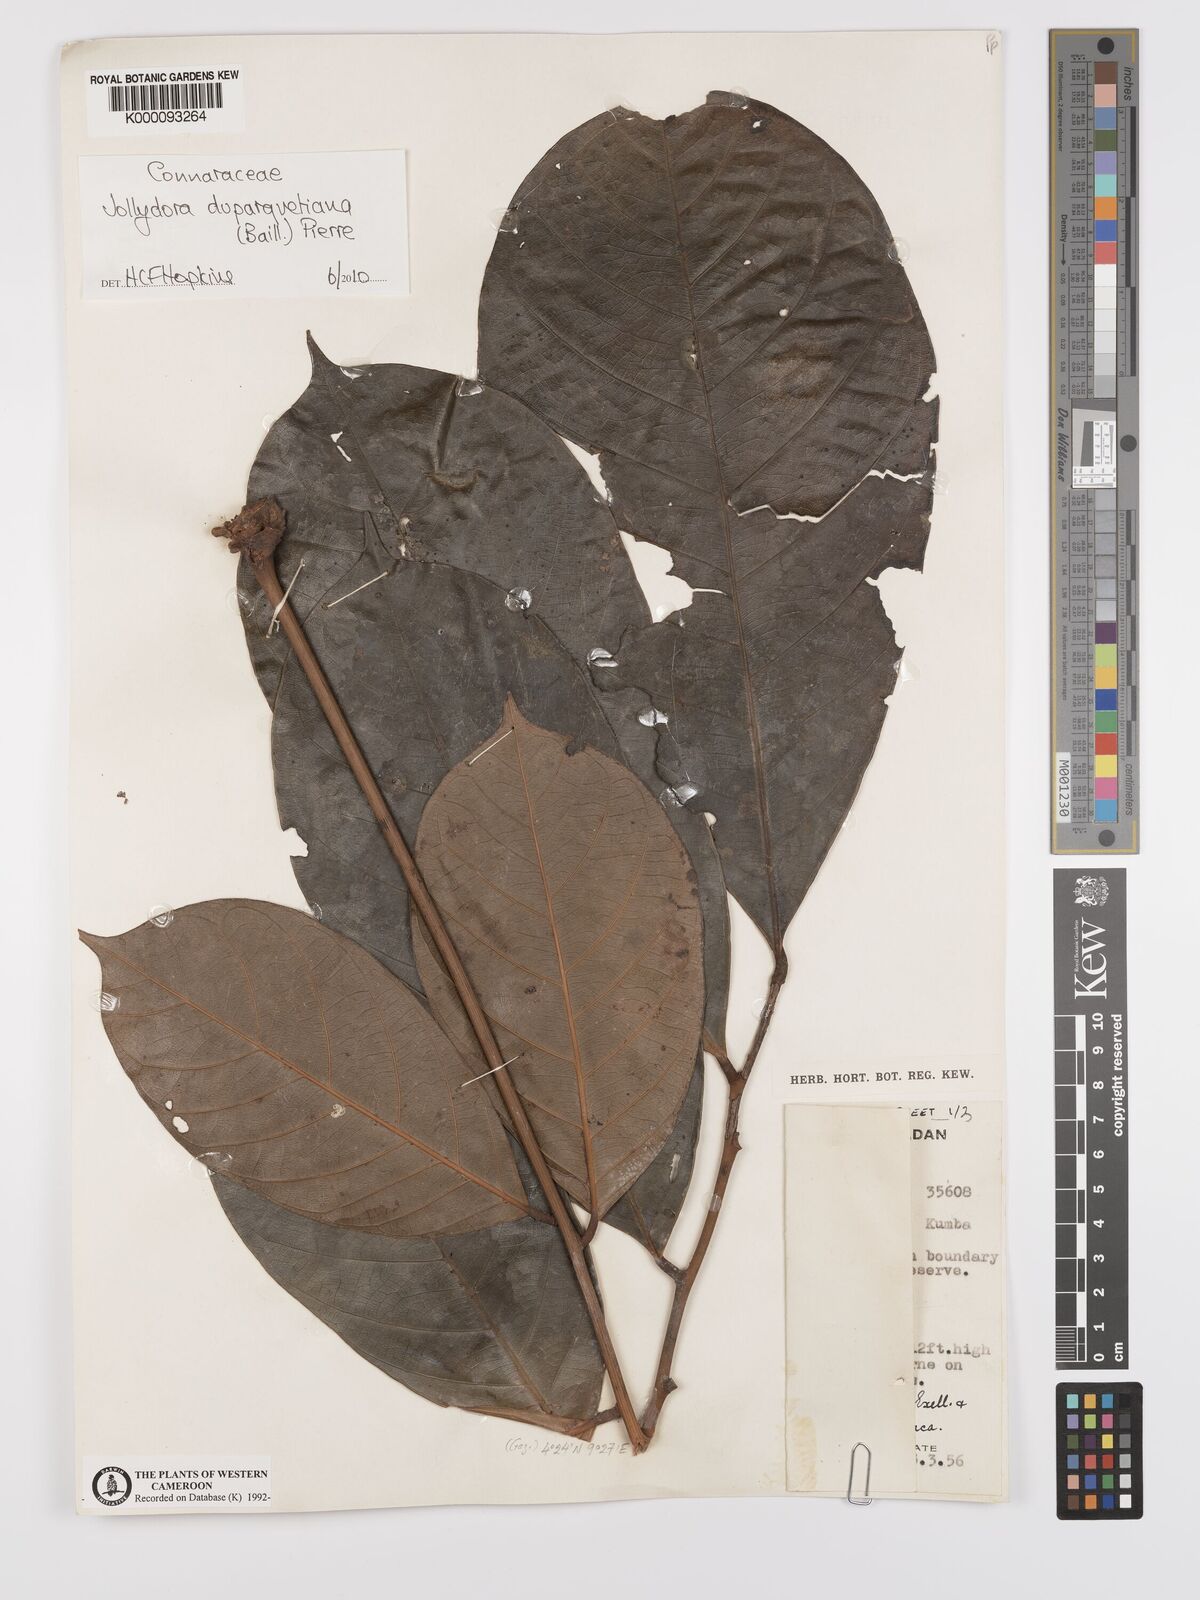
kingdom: Plantae
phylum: Tracheophyta
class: Magnoliopsida
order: Oxalidales
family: Connaraceae
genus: Jollydora
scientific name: Jollydora duparquetiana
